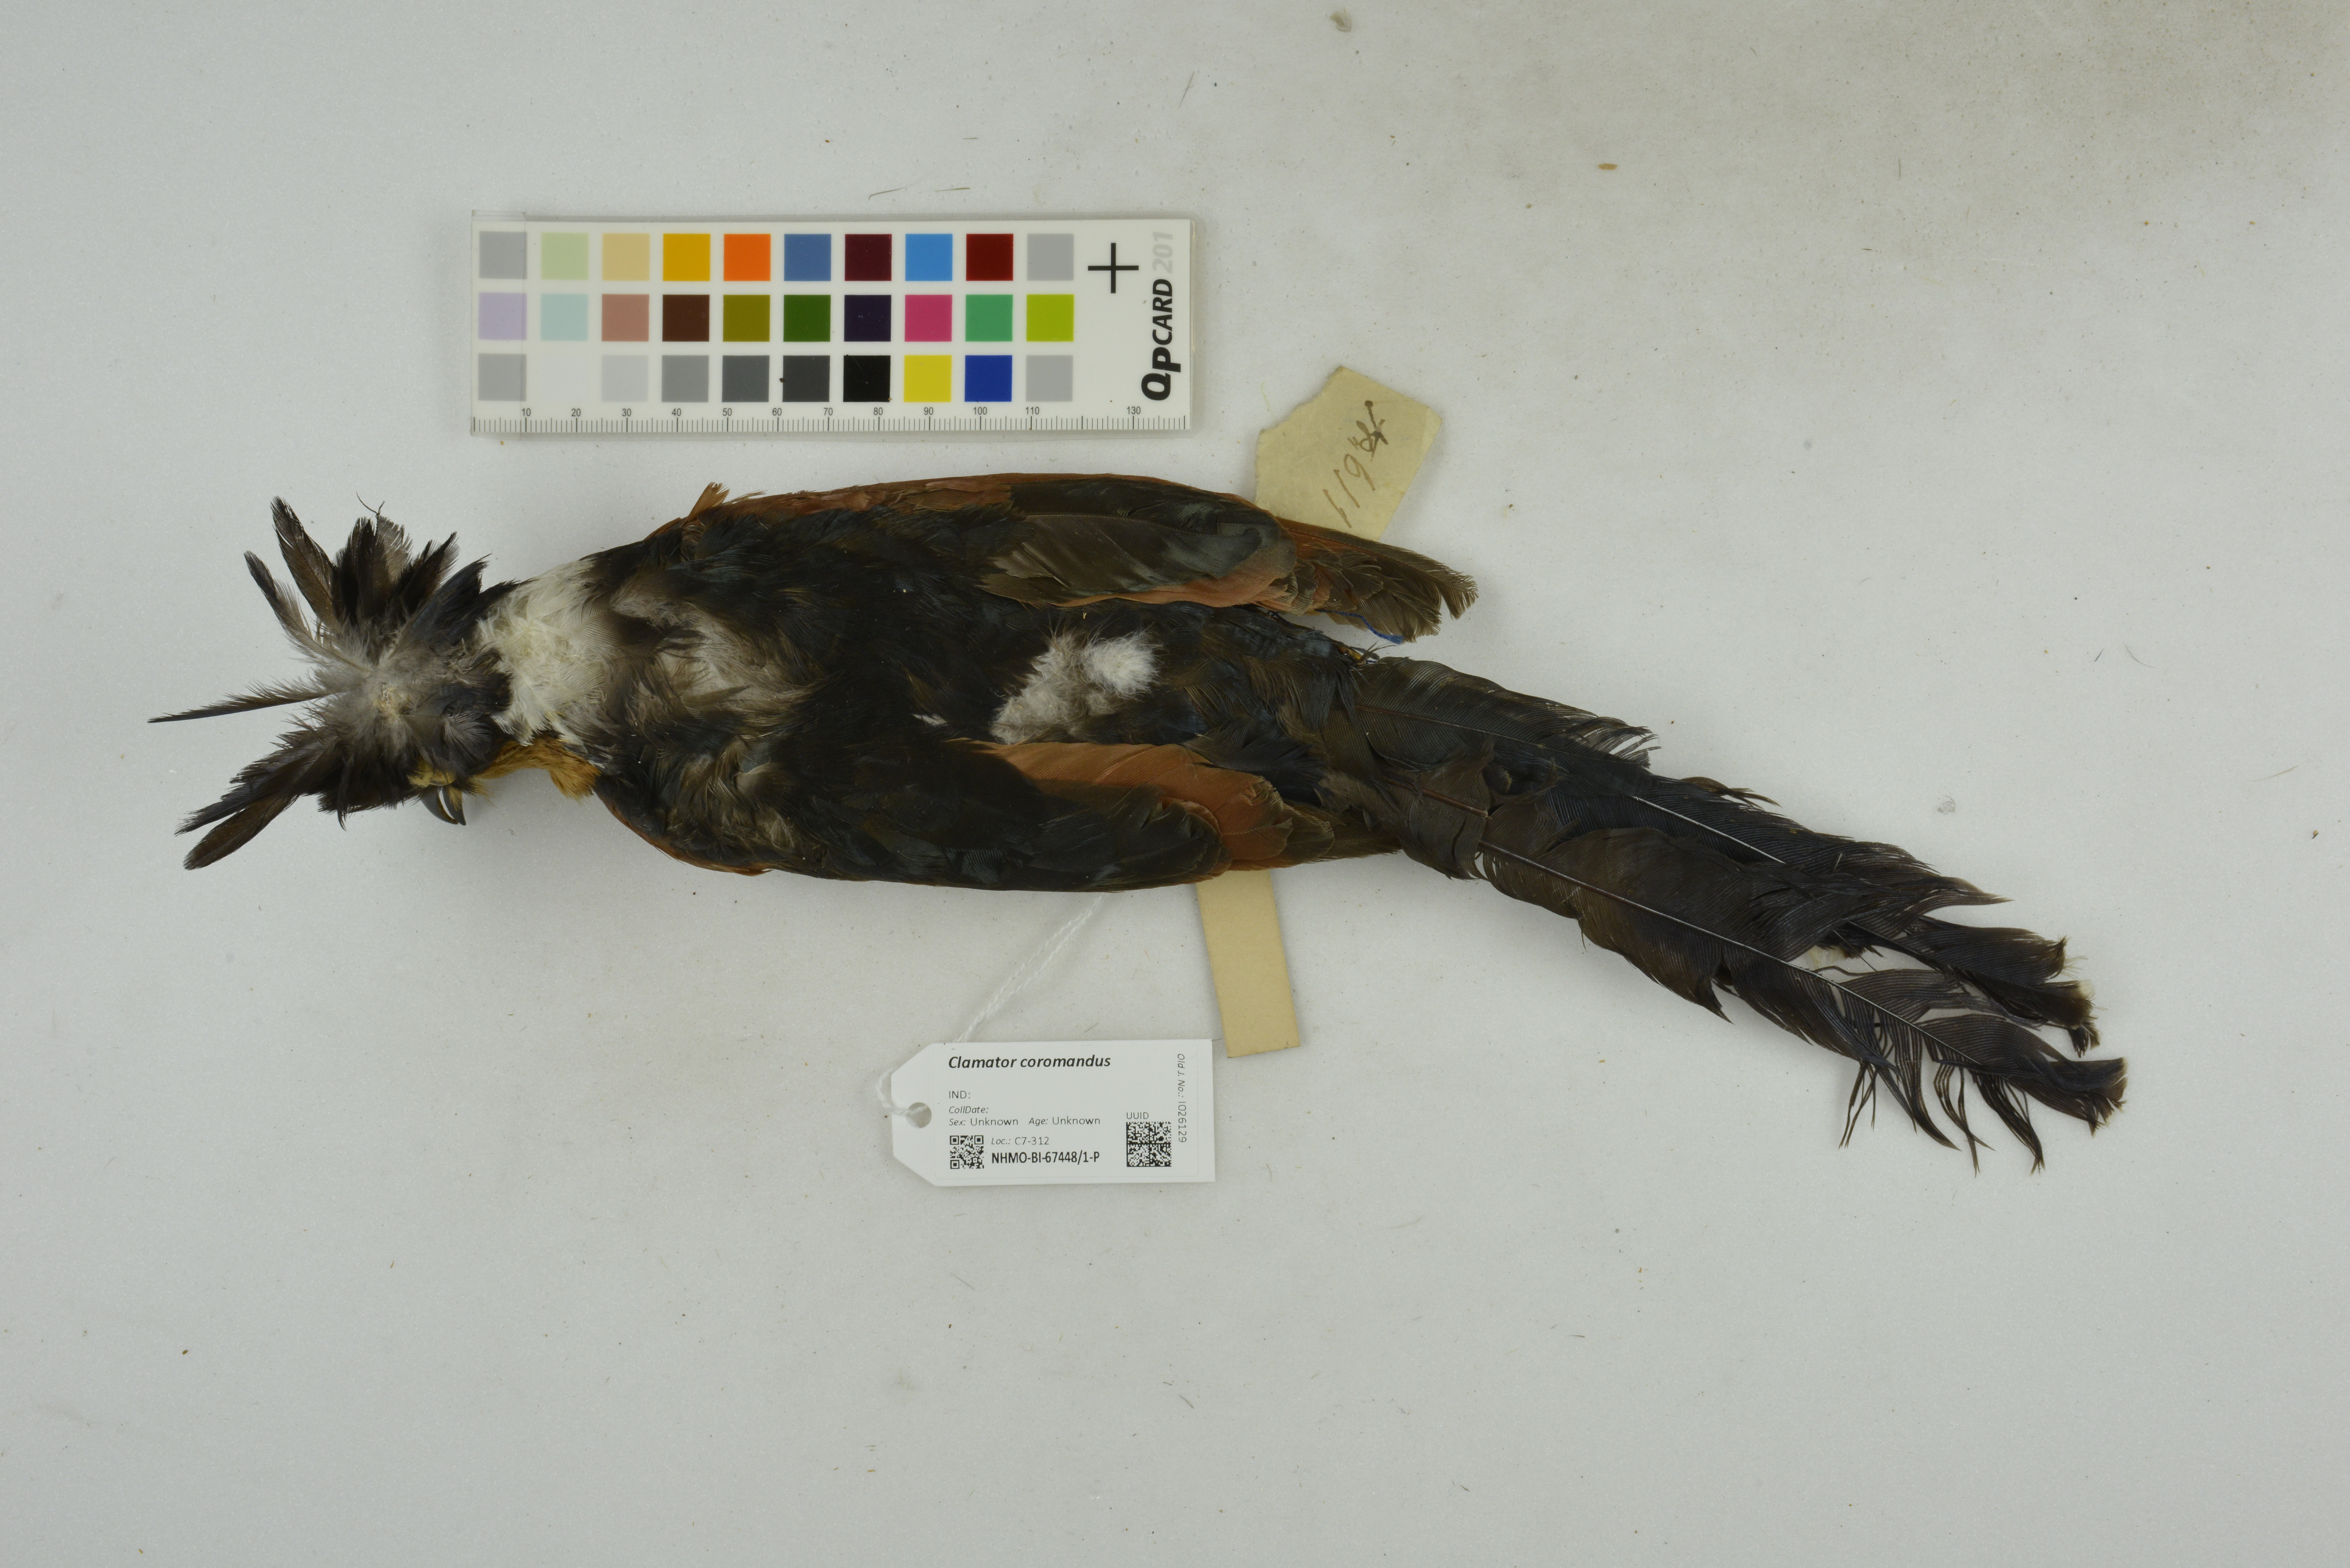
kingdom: Animalia
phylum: Chordata
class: Aves
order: Cuculiformes
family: Cuculidae
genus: Clamator
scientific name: Clamator coromandus
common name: Chestnut-winged cuckoo
